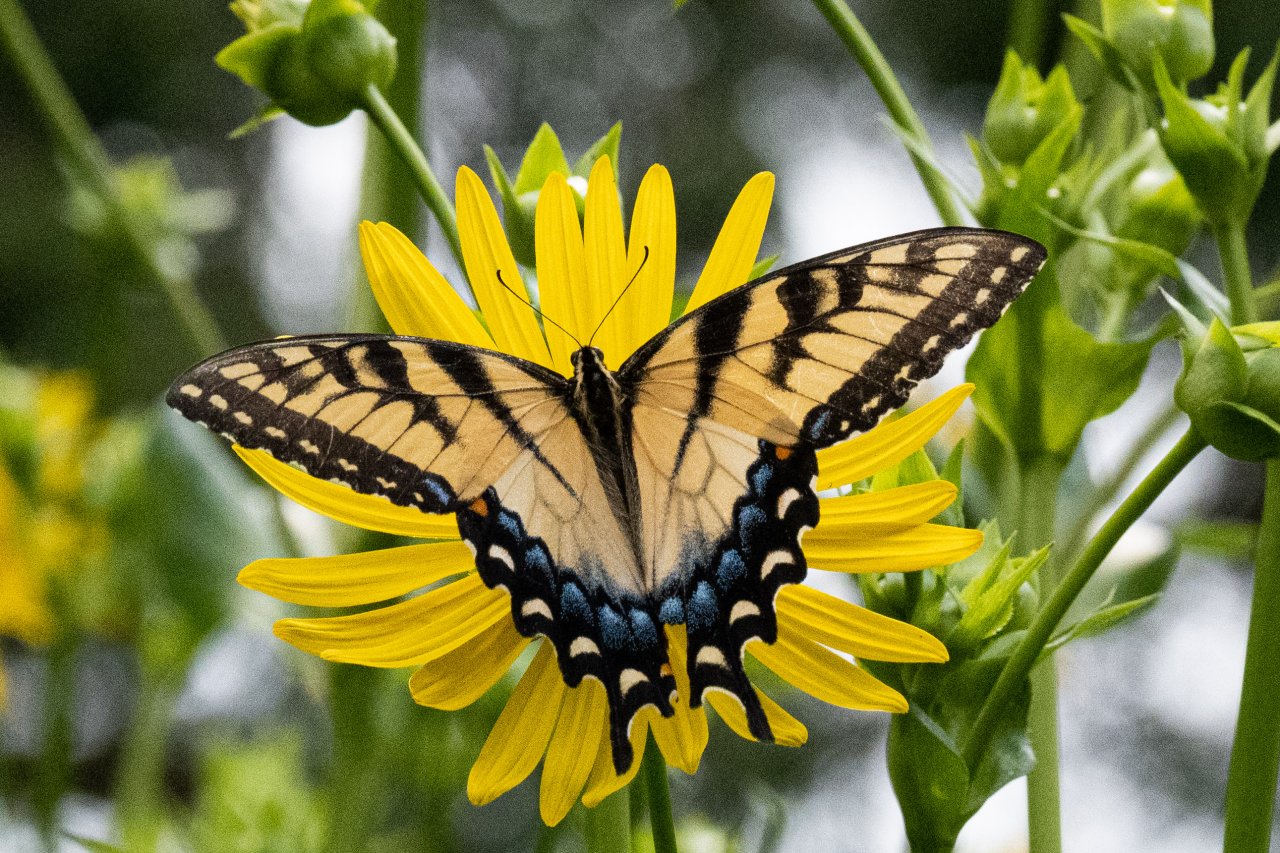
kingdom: Animalia
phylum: Arthropoda
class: Insecta
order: Lepidoptera
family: Papilionidae
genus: Pterourus
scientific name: Pterourus glaucus
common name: Eastern Tiger Swallowtail
